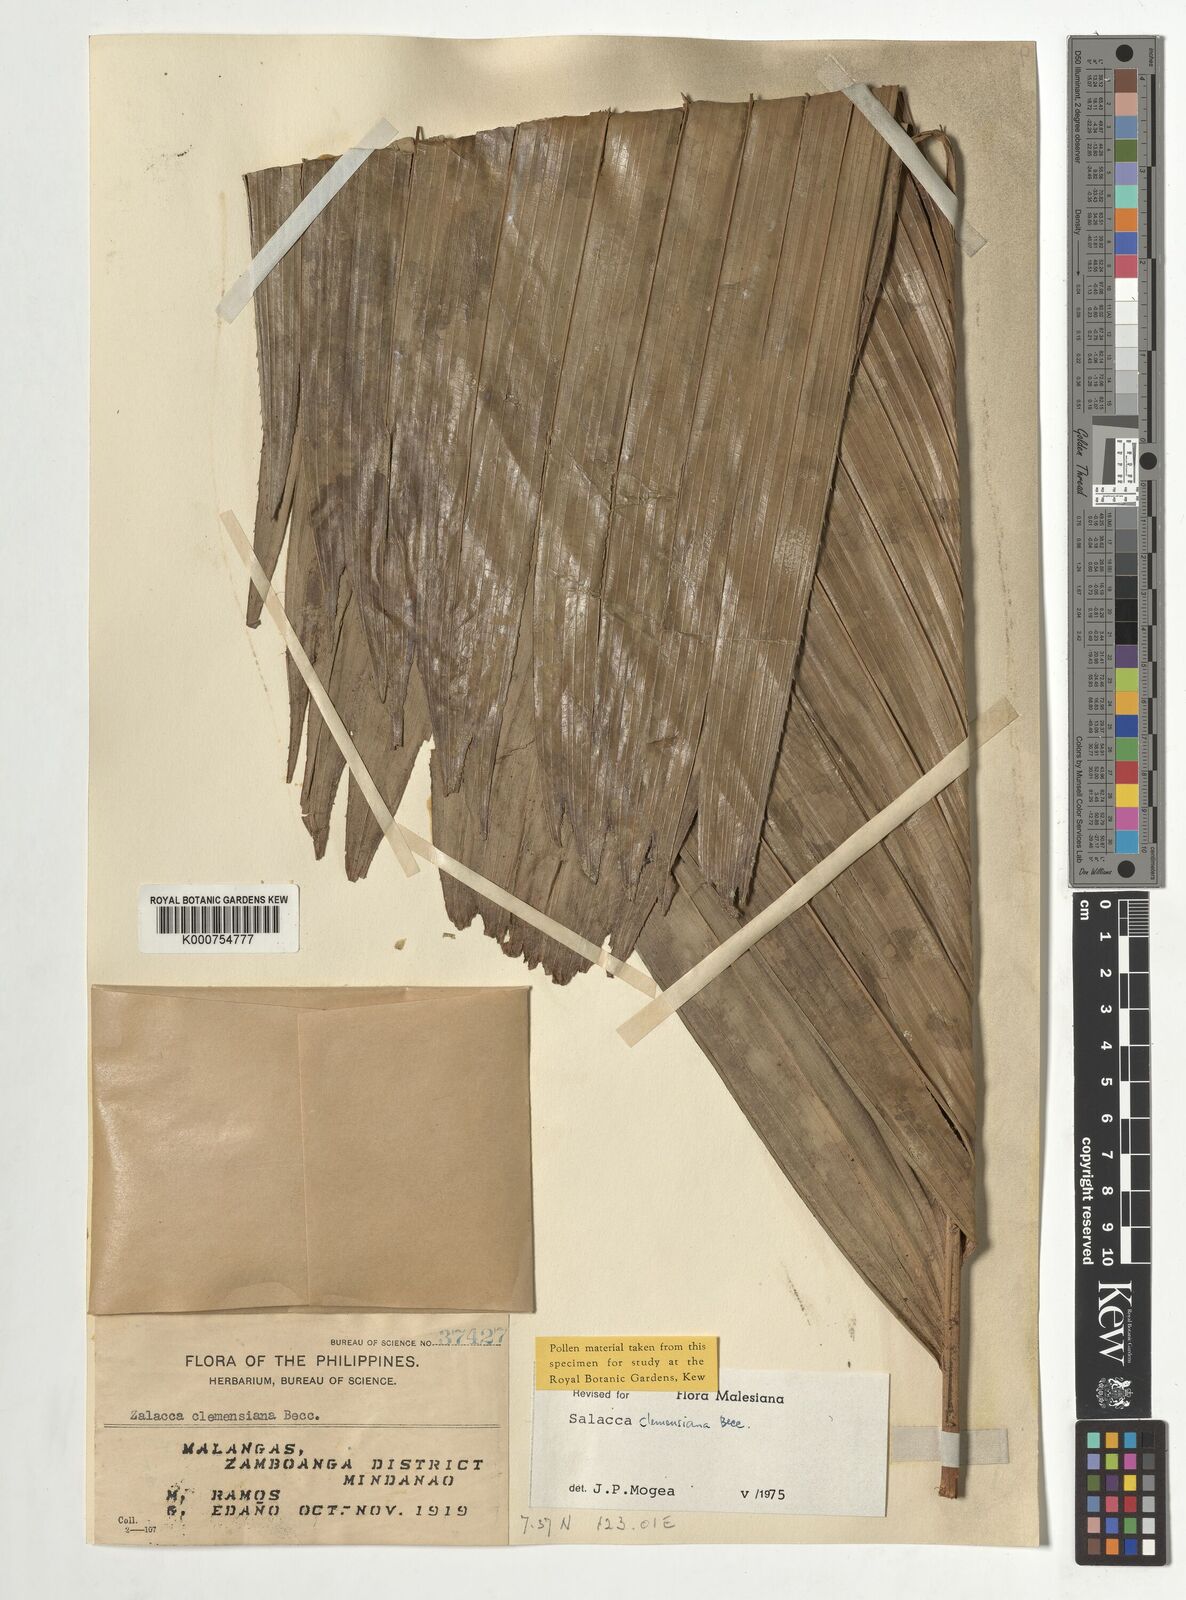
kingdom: Plantae
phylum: Tracheophyta
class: Liliopsida
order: Arecales
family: Arecaceae
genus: Salacca
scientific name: Salacca clemensiana
